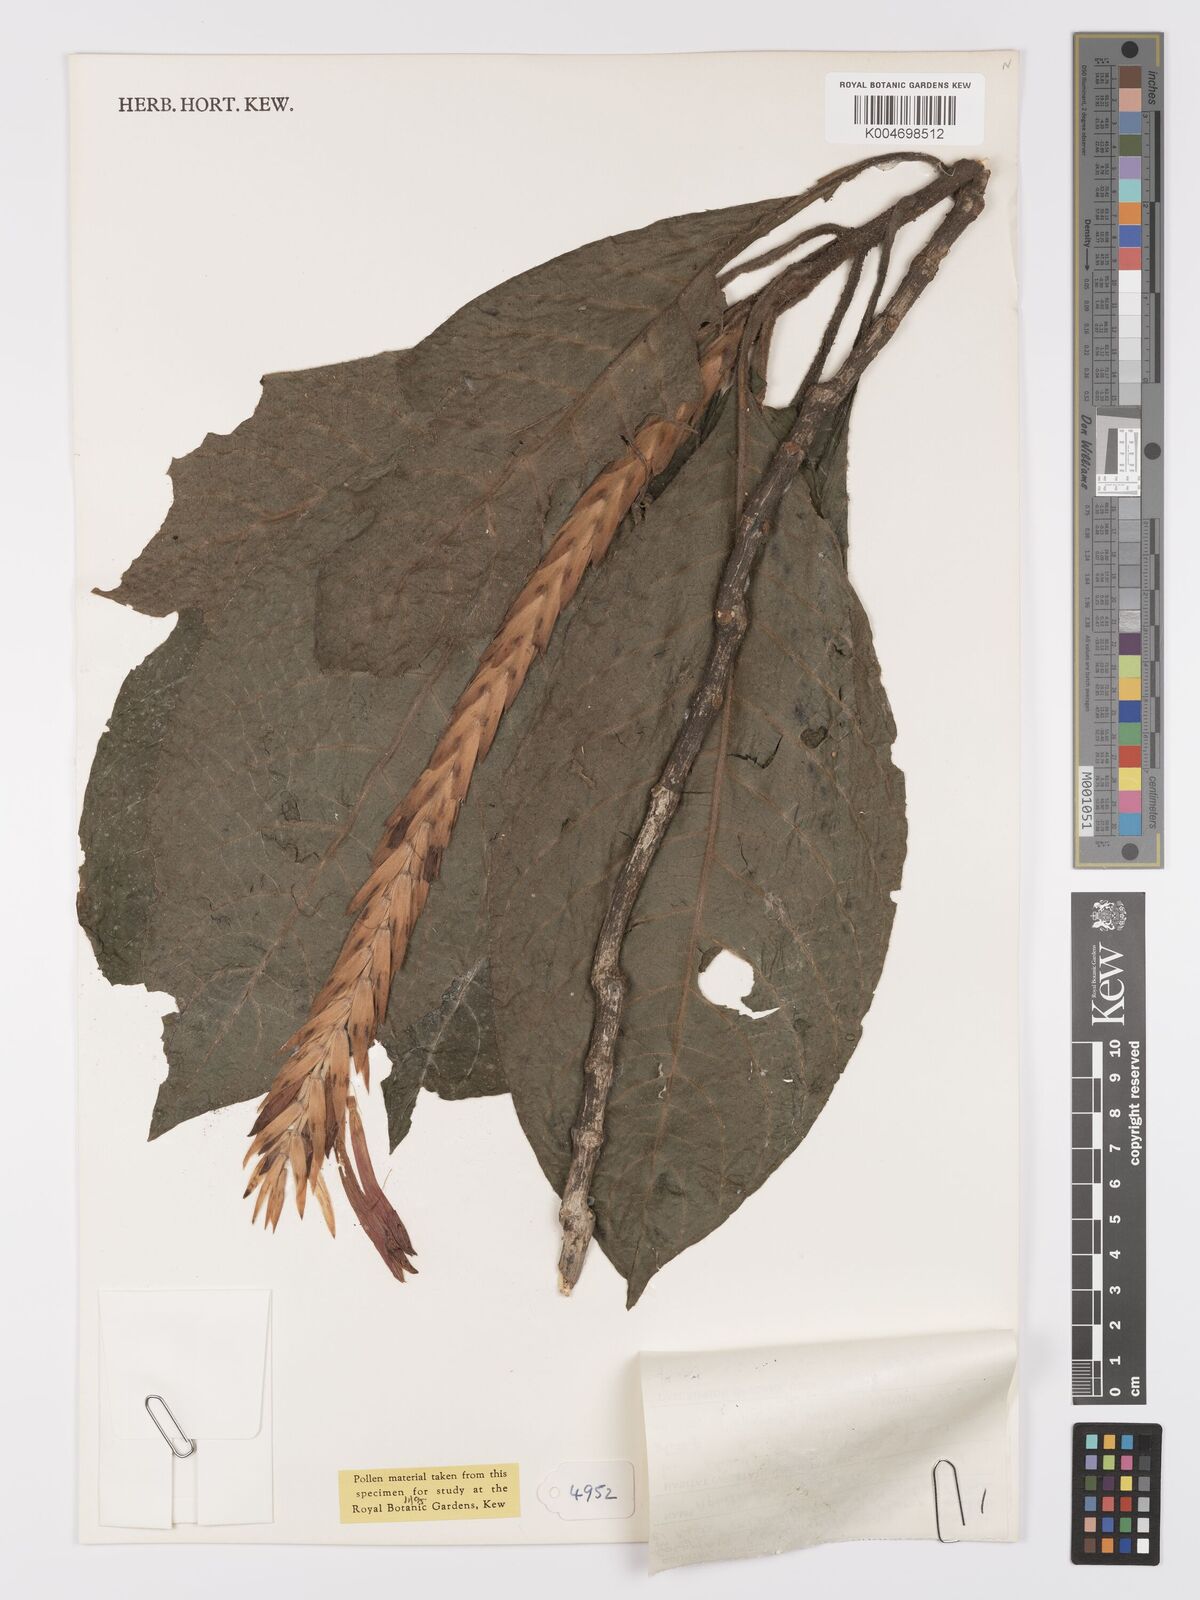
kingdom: Plantae
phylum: Tracheophyta
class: Magnoliopsida
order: Lamiales
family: Acanthaceae
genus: Aphelandra
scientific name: Aphelandra aristei
